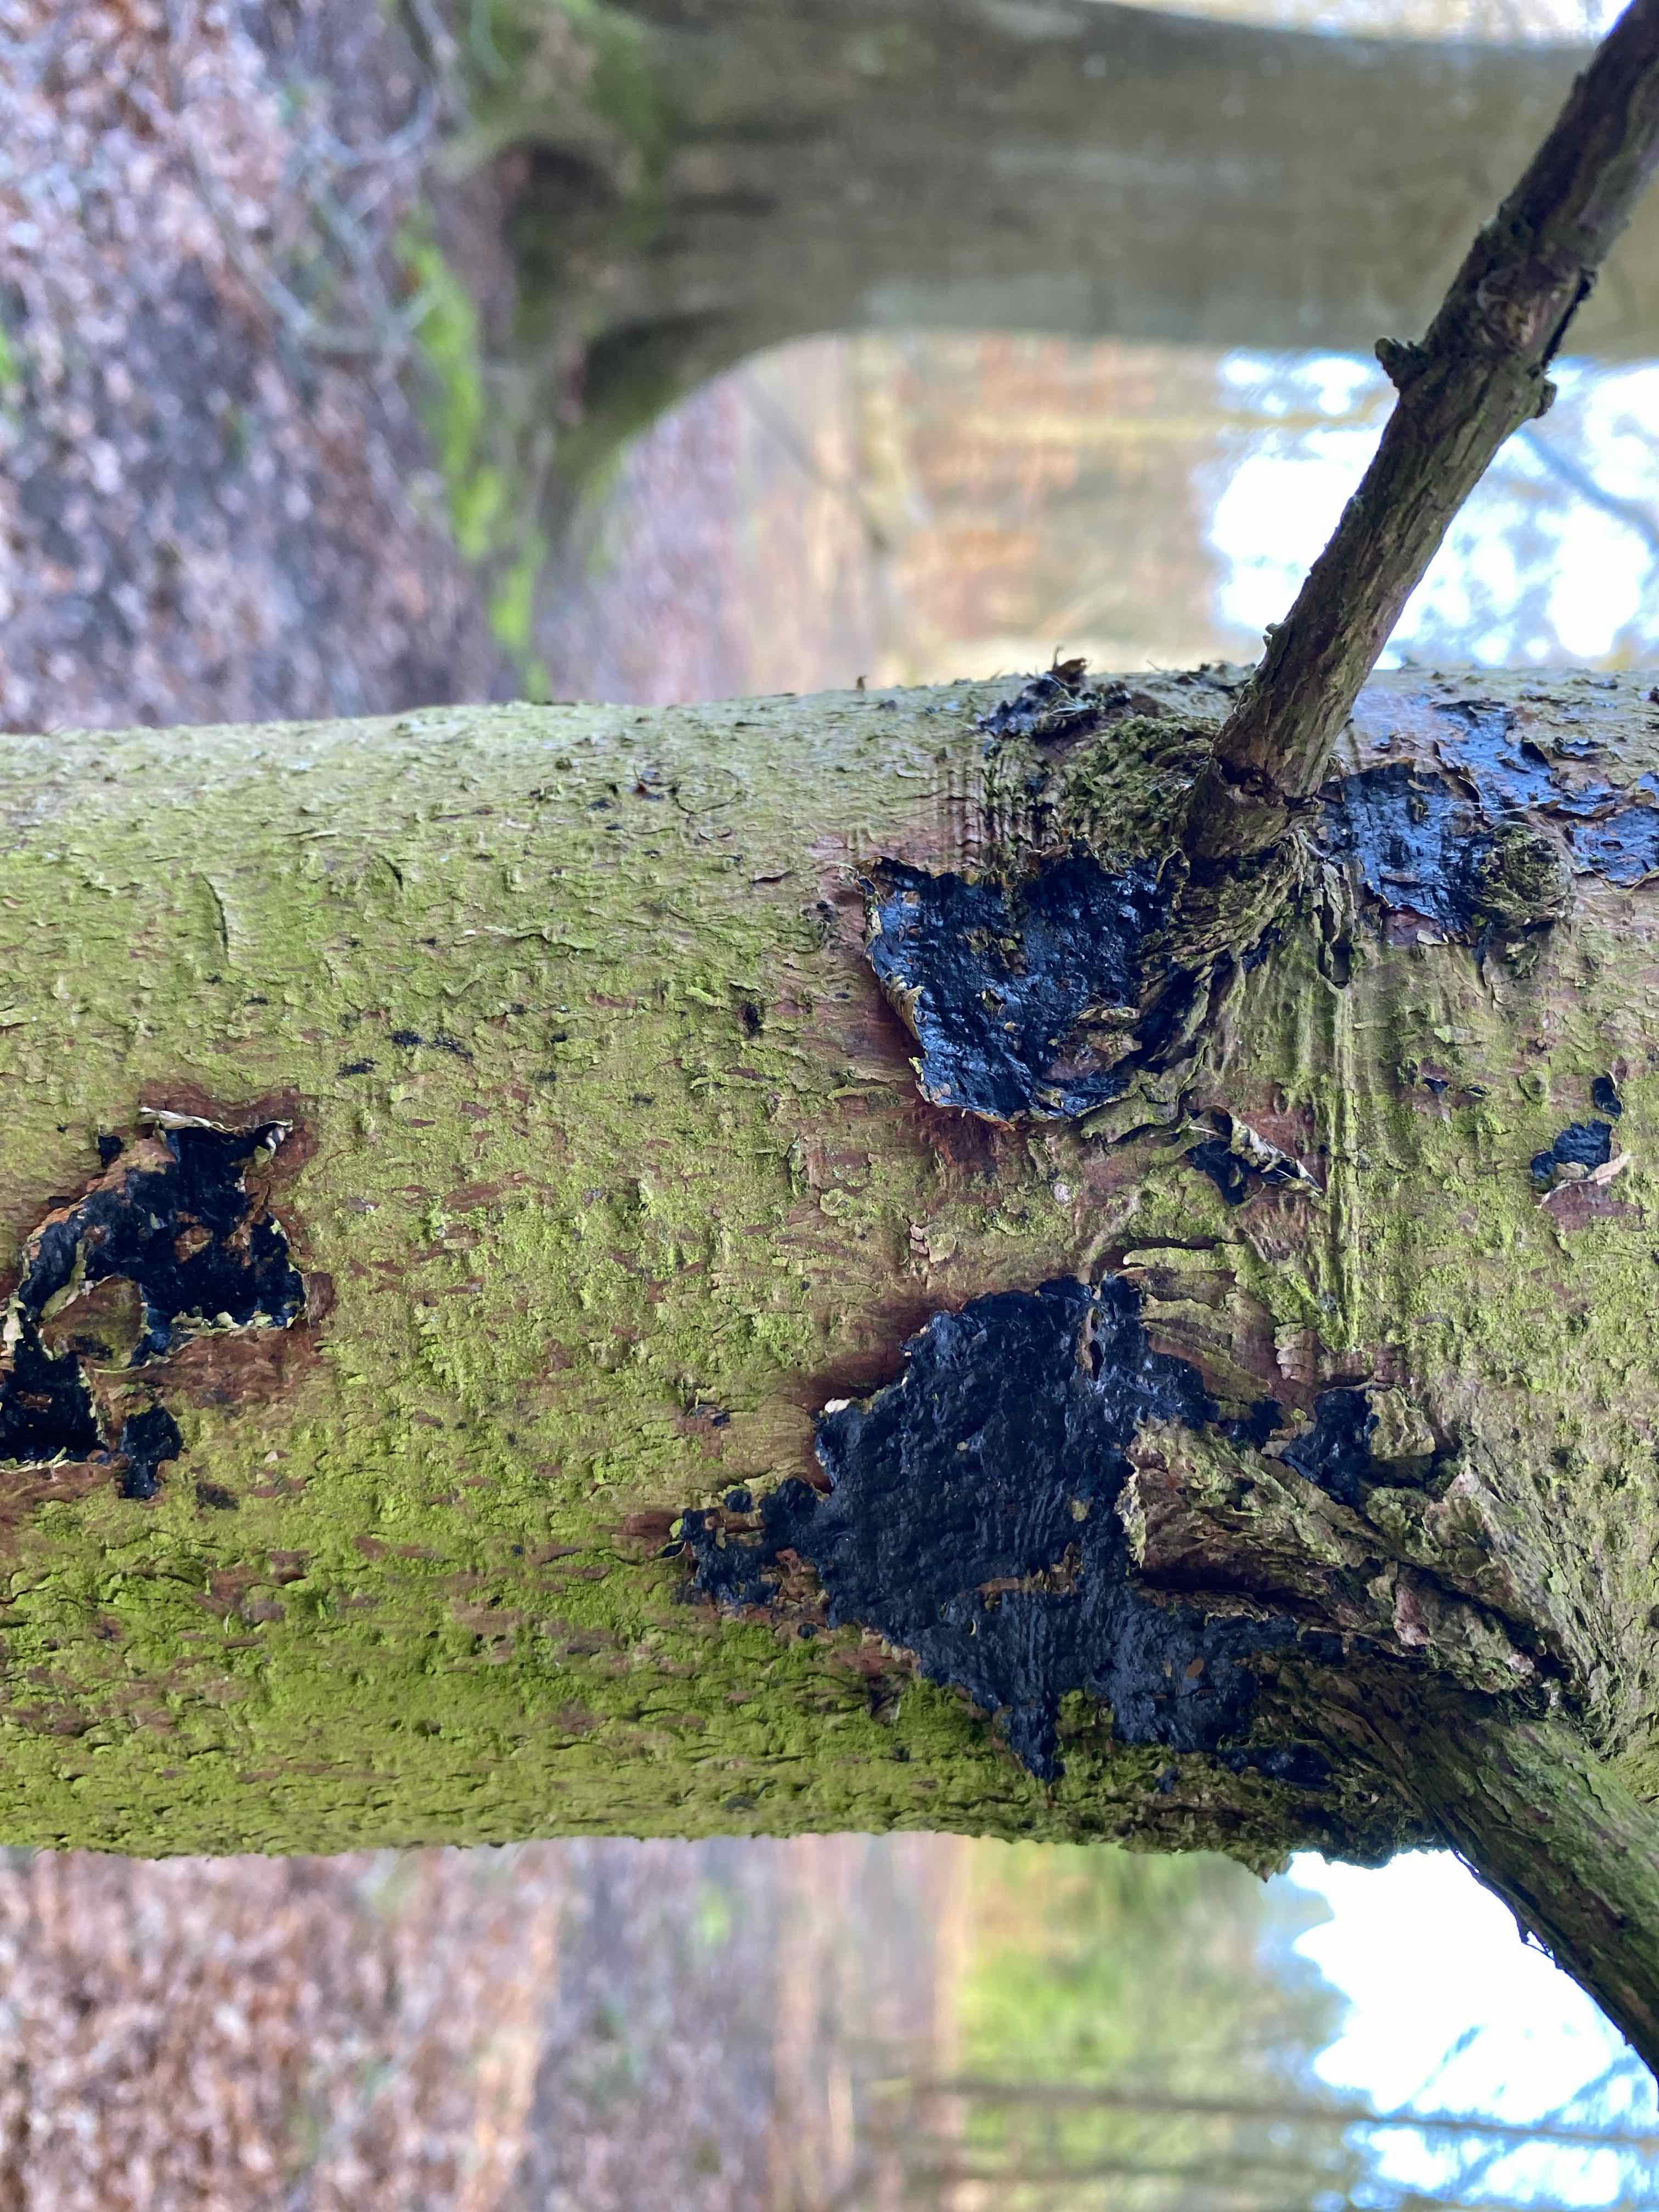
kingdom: Fungi
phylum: Basidiomycota
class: Agaricomycetes
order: Auriculariales
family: Auriculariaceae
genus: Exidia
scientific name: Exidia pithya
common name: gran-bævretop
